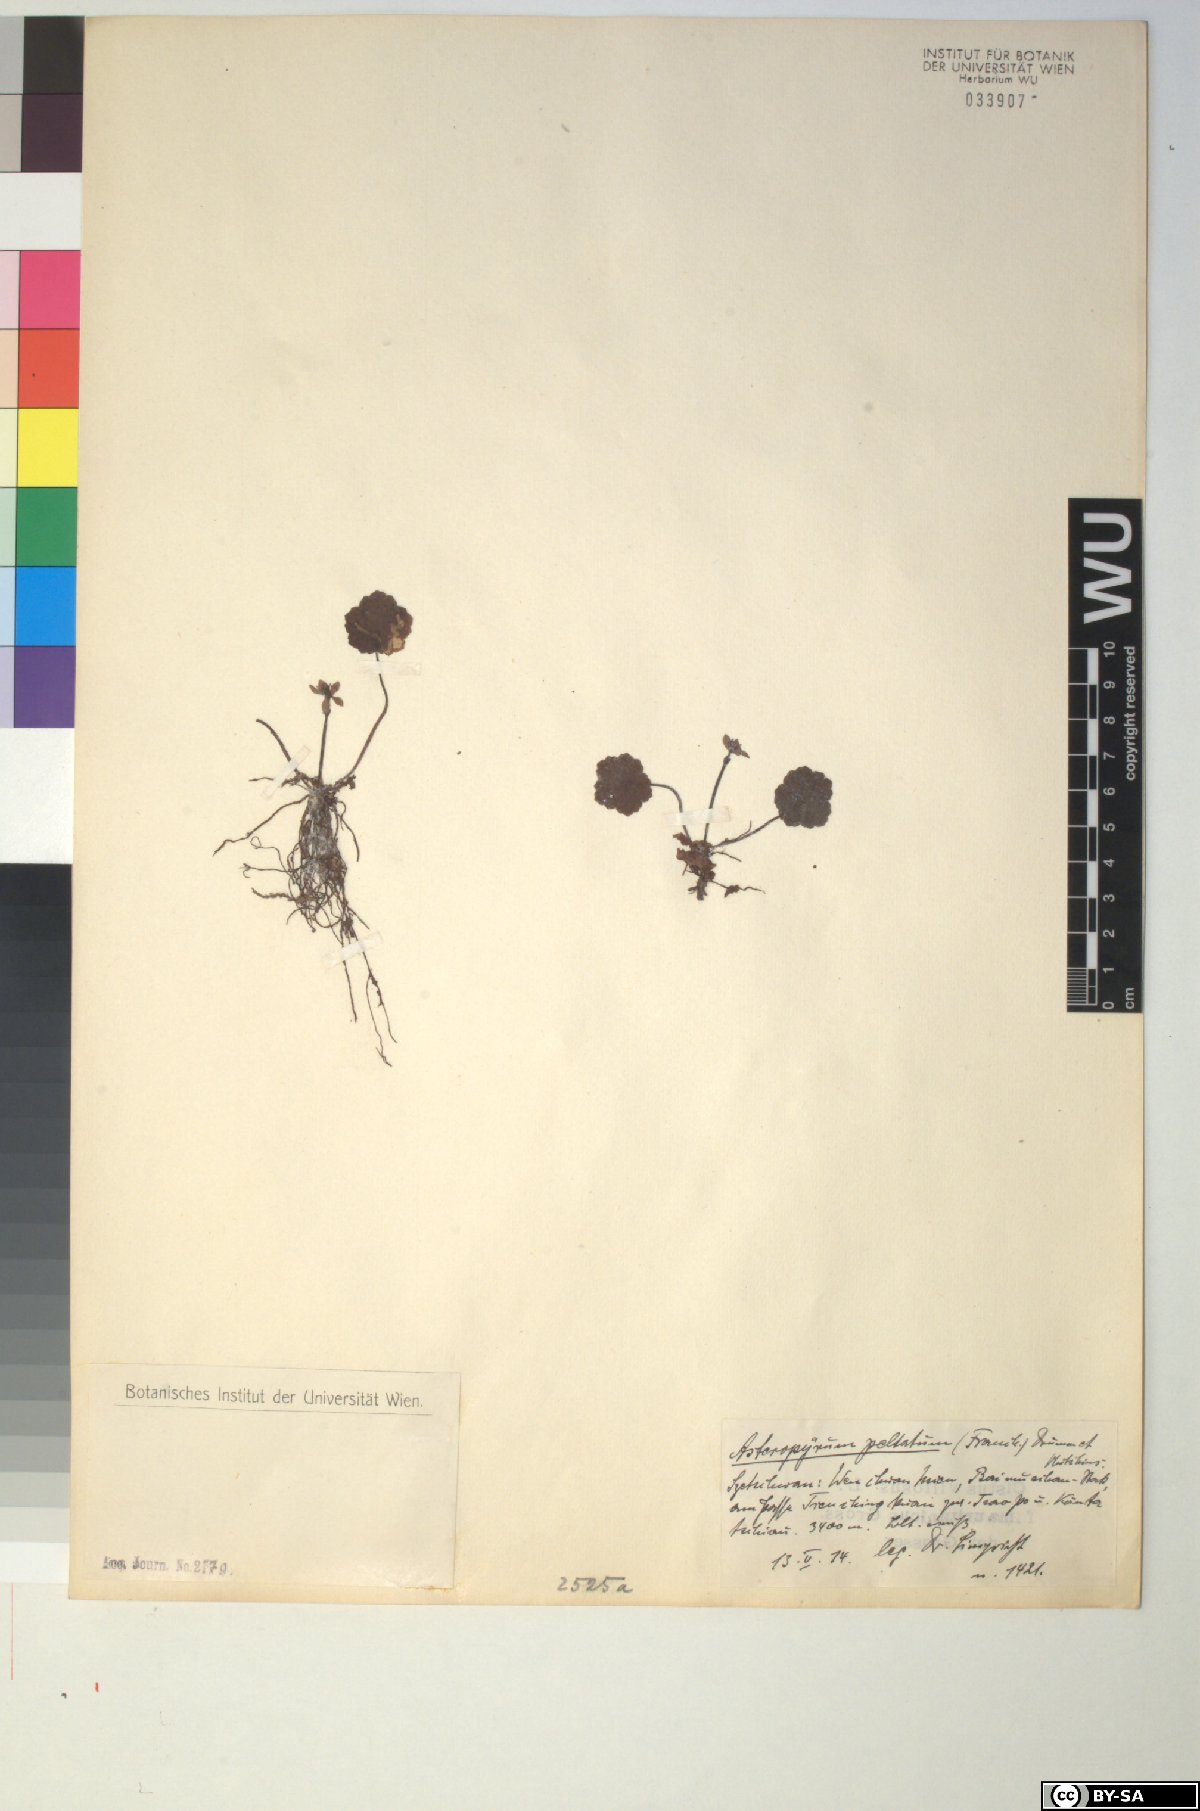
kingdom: Plantae
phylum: Tracheophyta
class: Magnoliopsida
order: Ranunculales
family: Ranunculaceae
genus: Asteropyrum
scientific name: Asteropyrum peltatum
